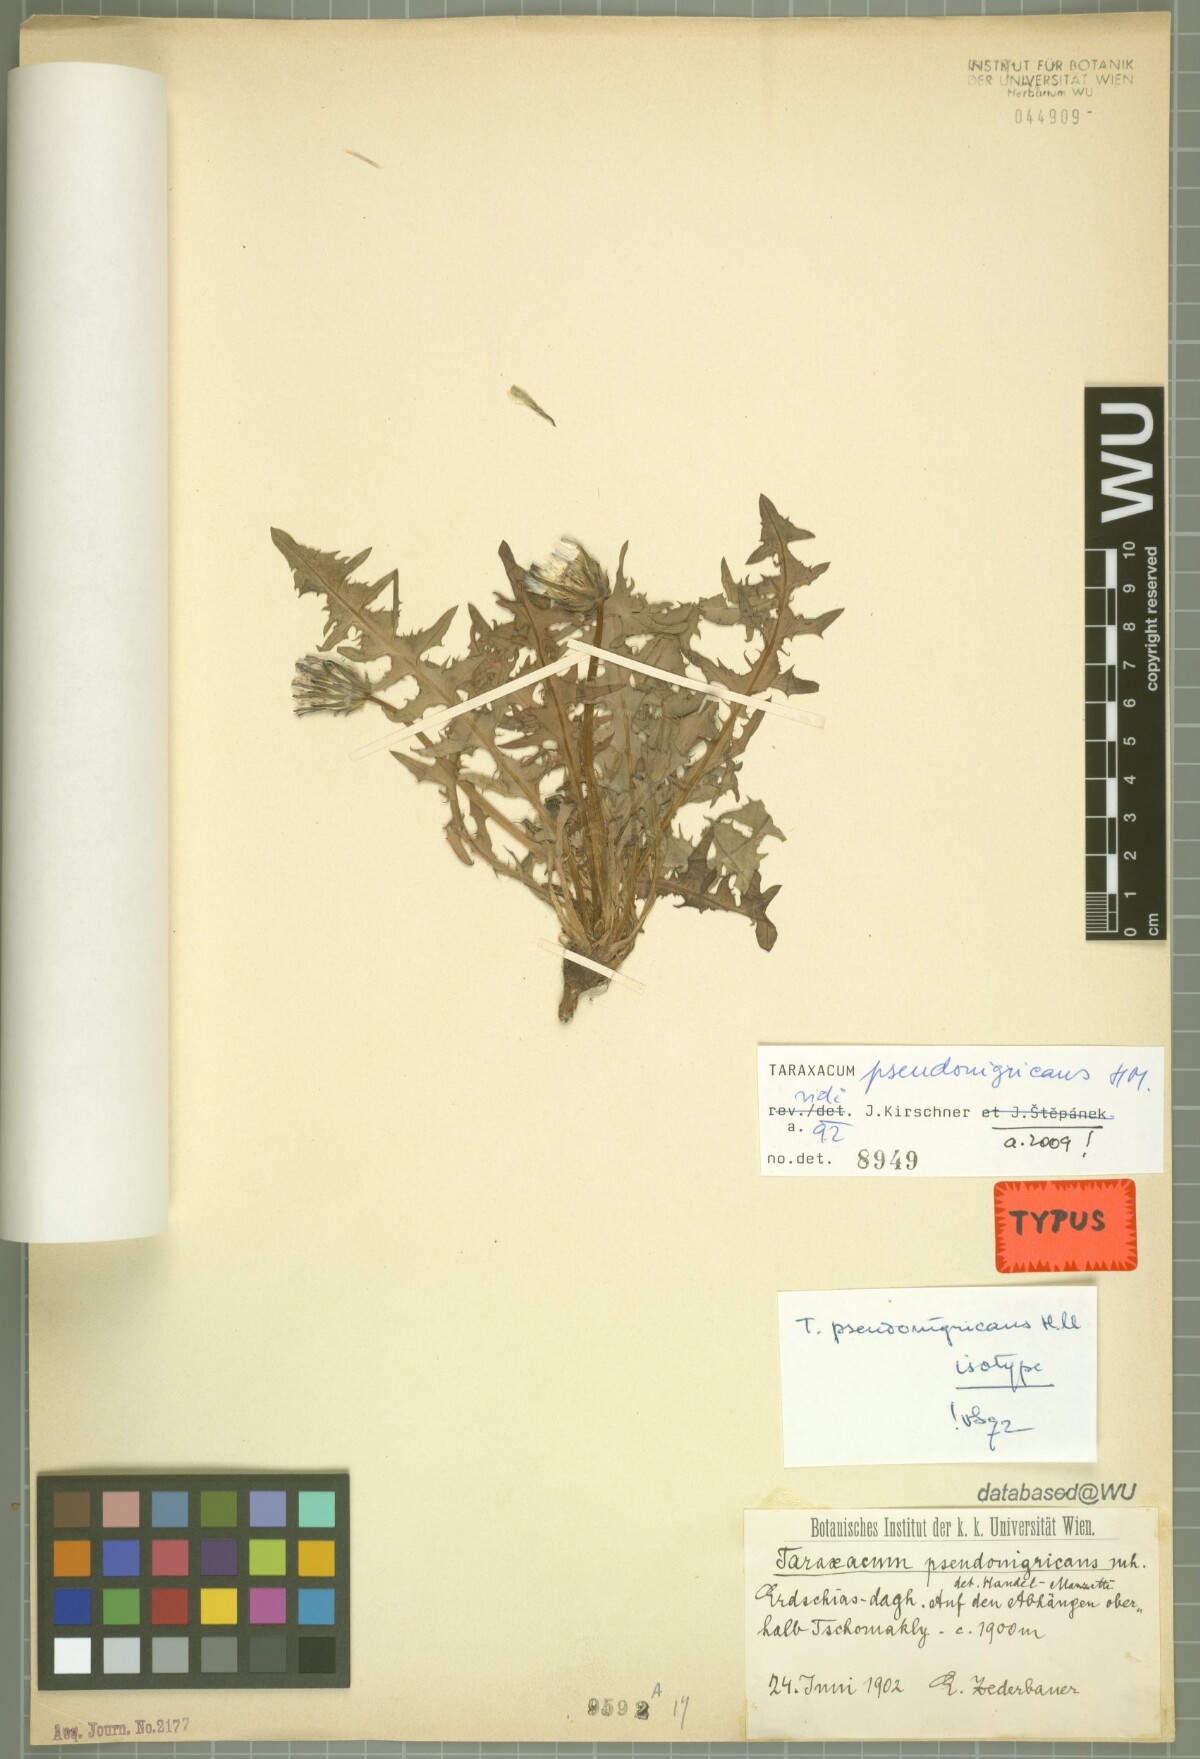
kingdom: Plantae
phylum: Tracheophyta
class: Magnoliopsida
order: Asterales
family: Asteraceae
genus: Taraxacum
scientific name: Taraxacum pseudonigricans
